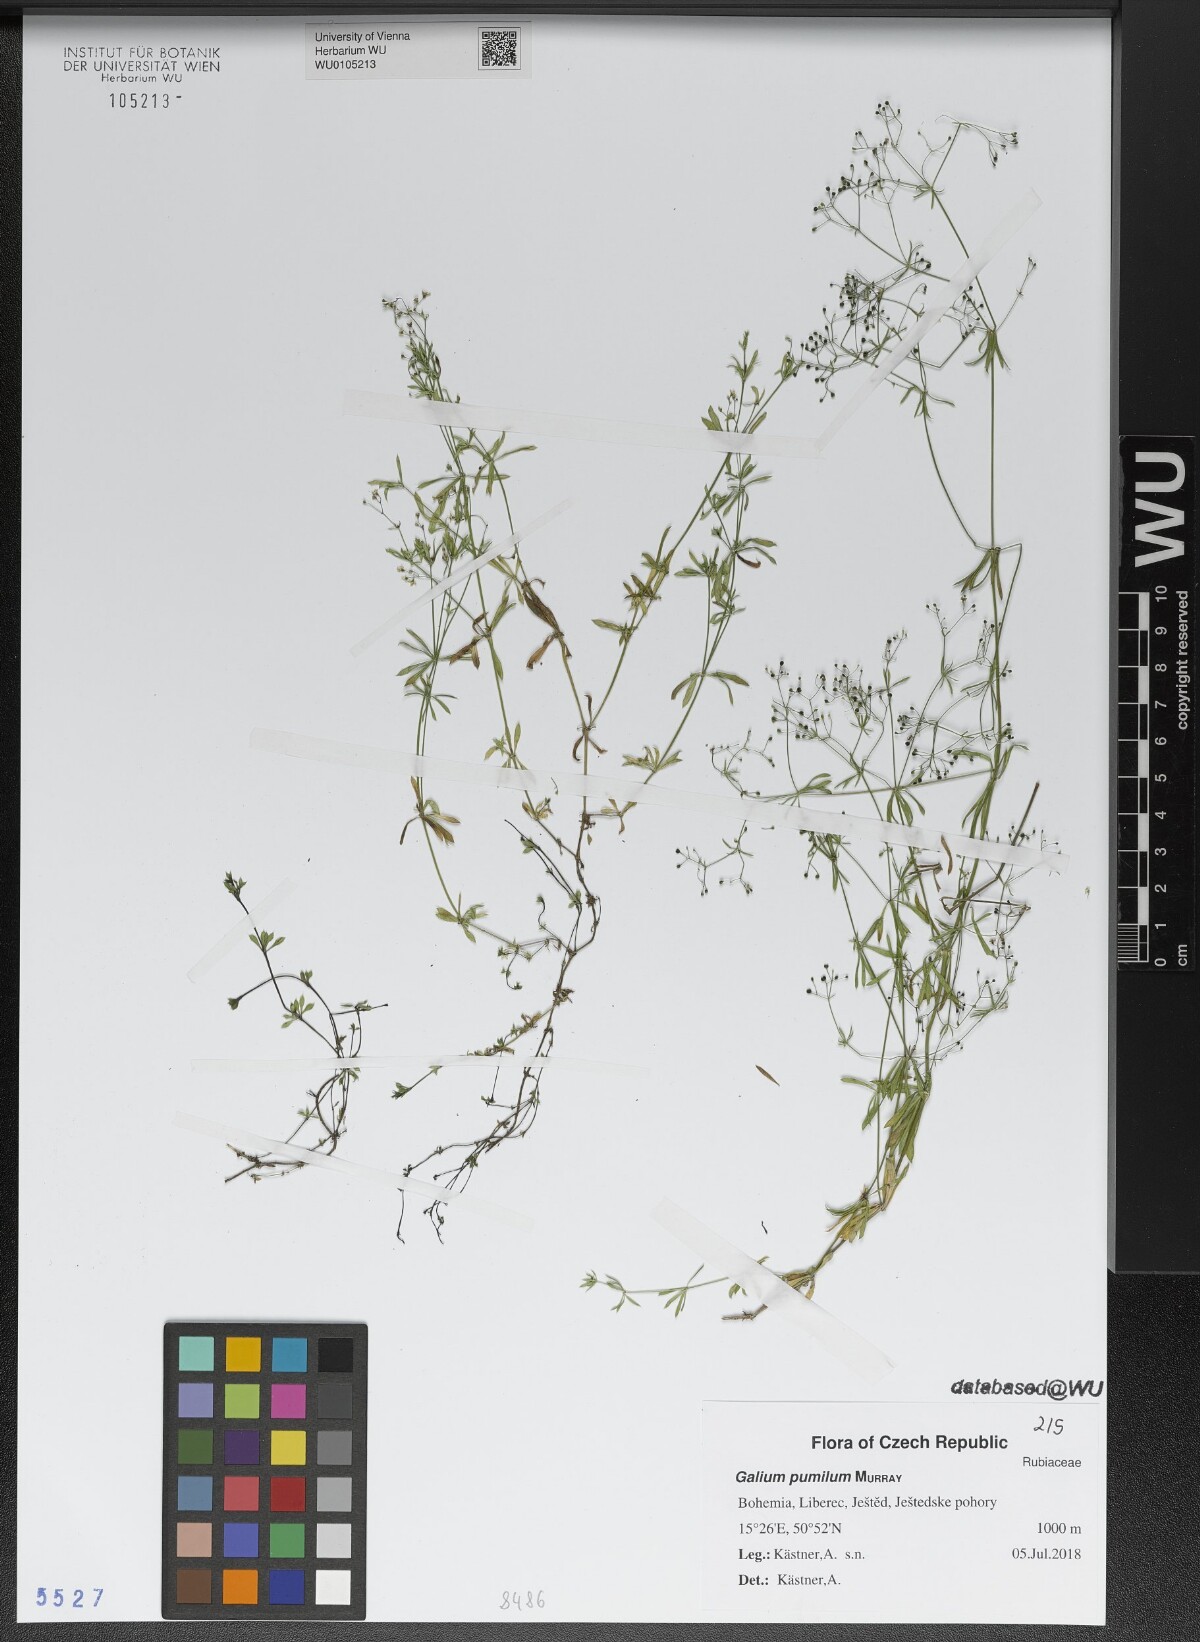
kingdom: Plantae
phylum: Tracheophyta
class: Magnoliopsida
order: Gentianales
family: Rubiaceae
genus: Galium
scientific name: Galium pumilum
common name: Slender bedstraw
